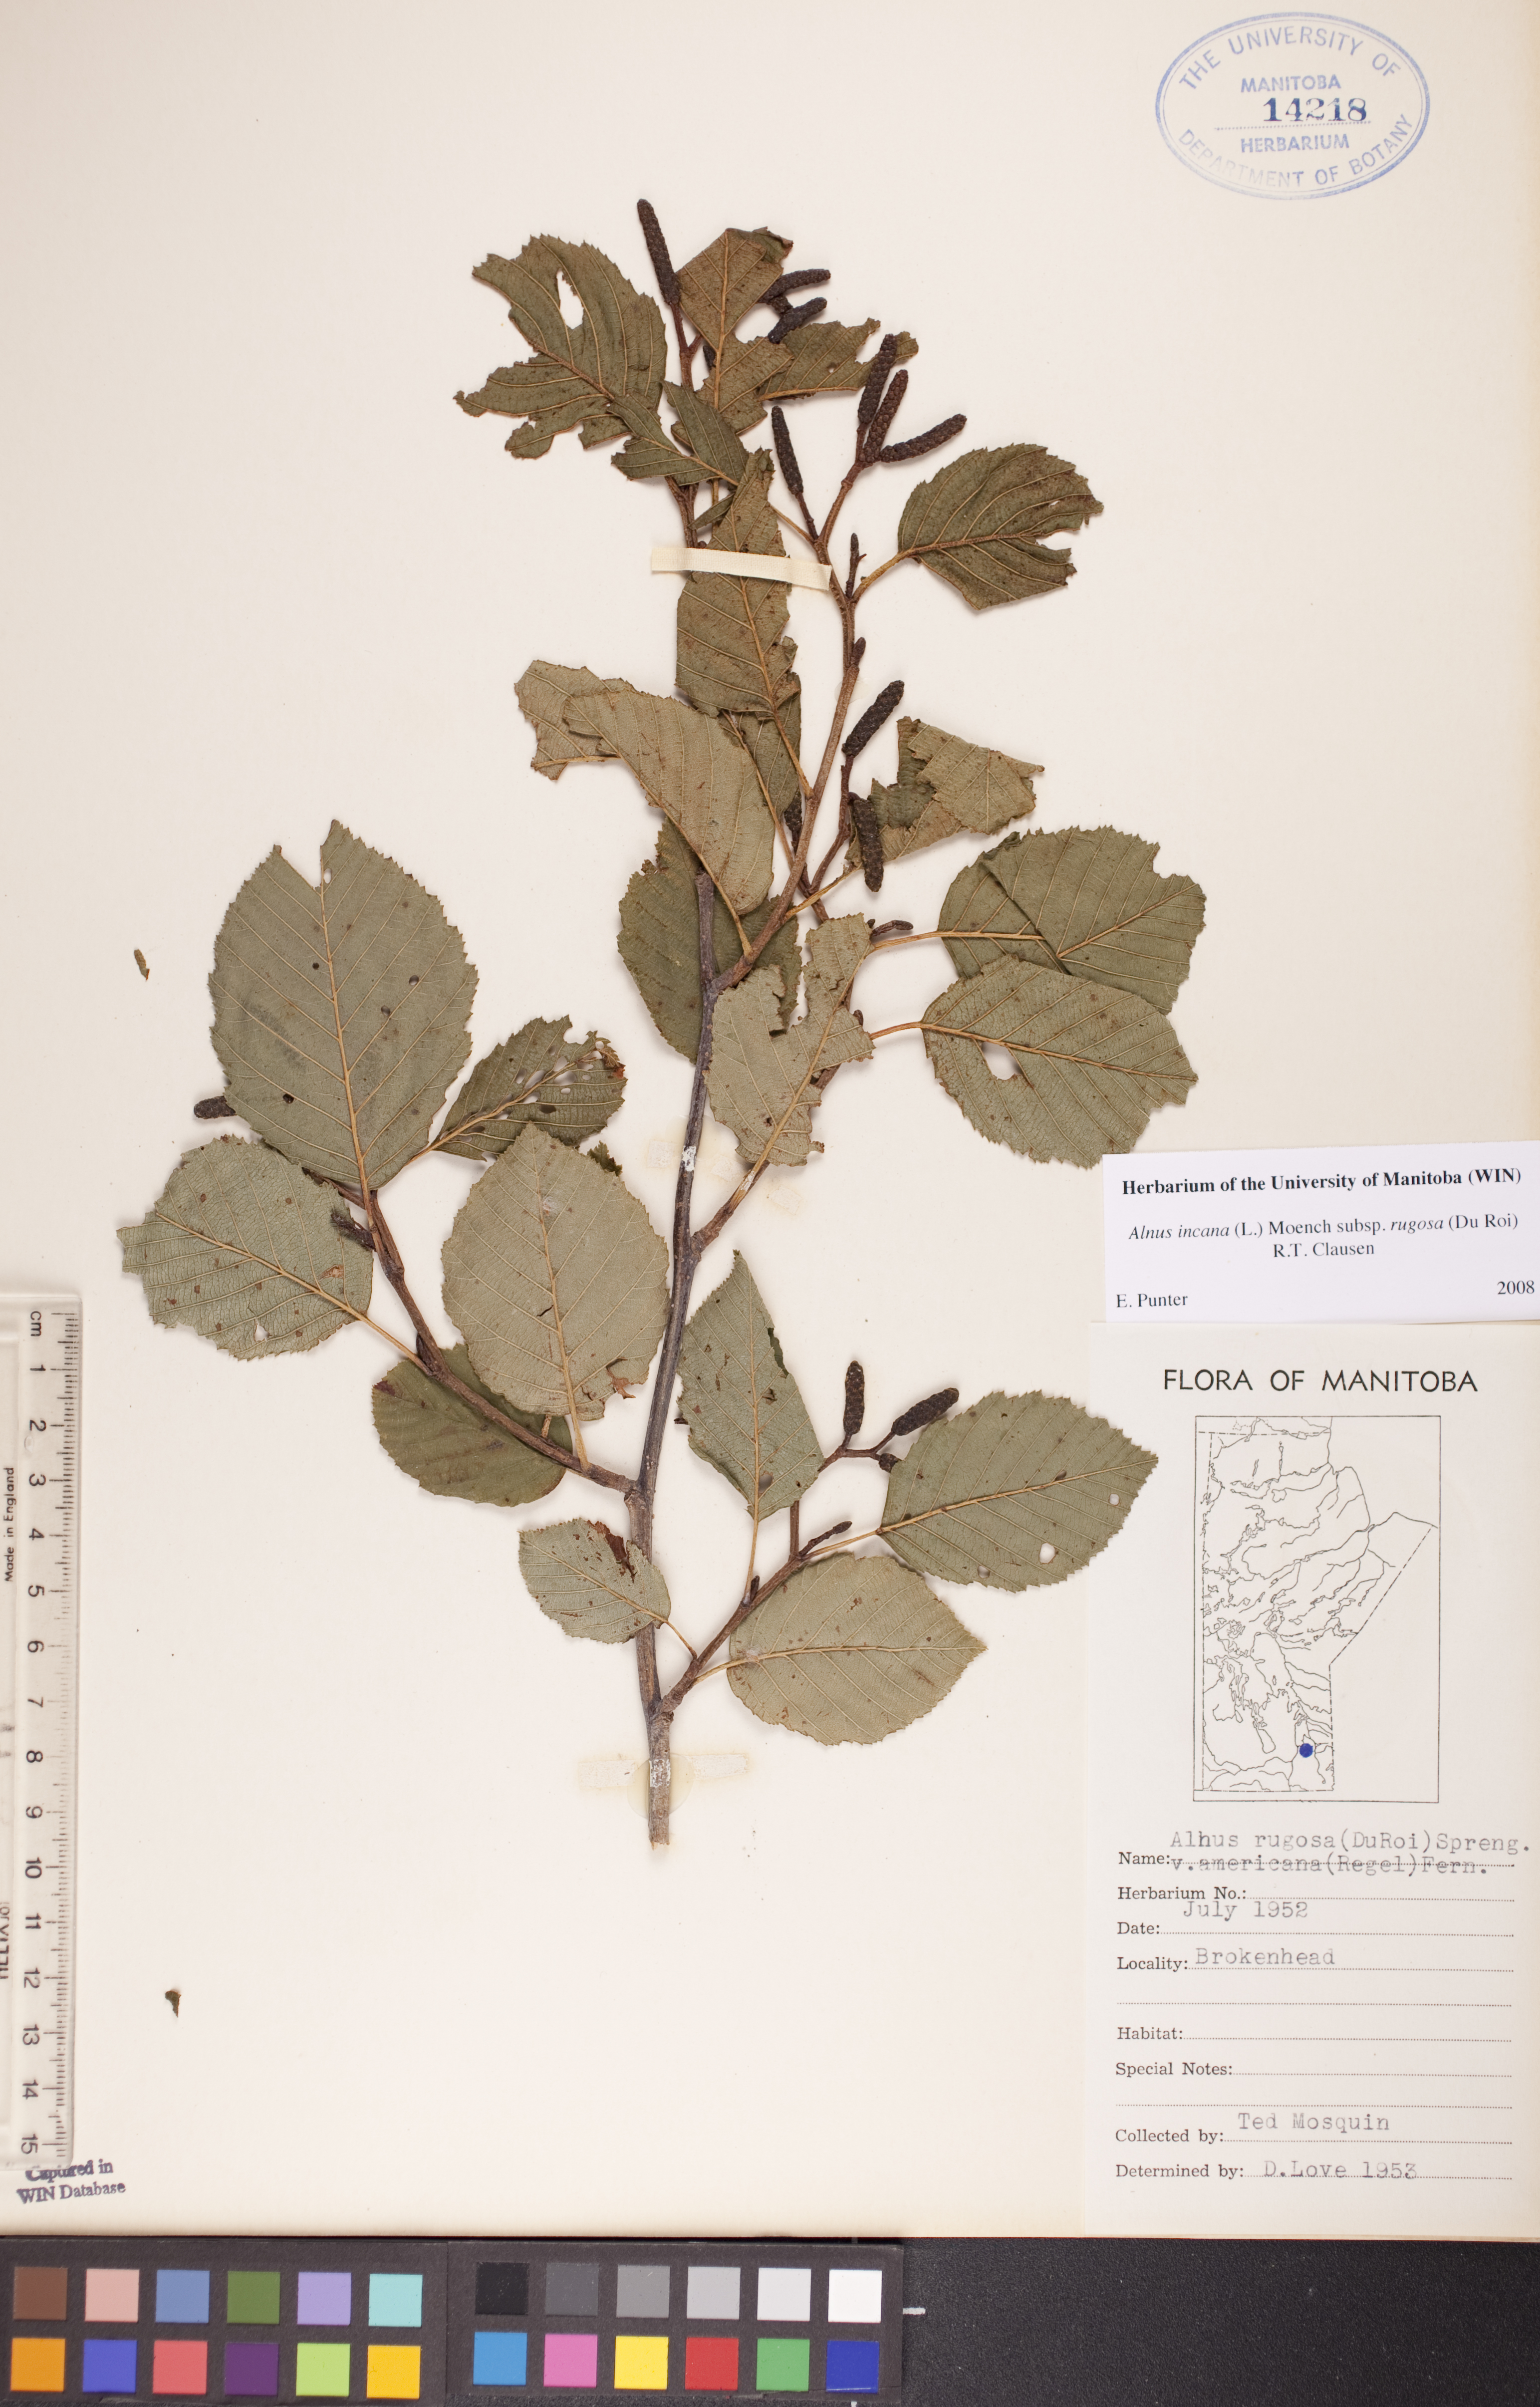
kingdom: Plantae
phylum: Tracheophyta
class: Magnoliopsida
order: Fagales
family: Betulaceae
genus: Alnus
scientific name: Alnus incana
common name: Grey alder
